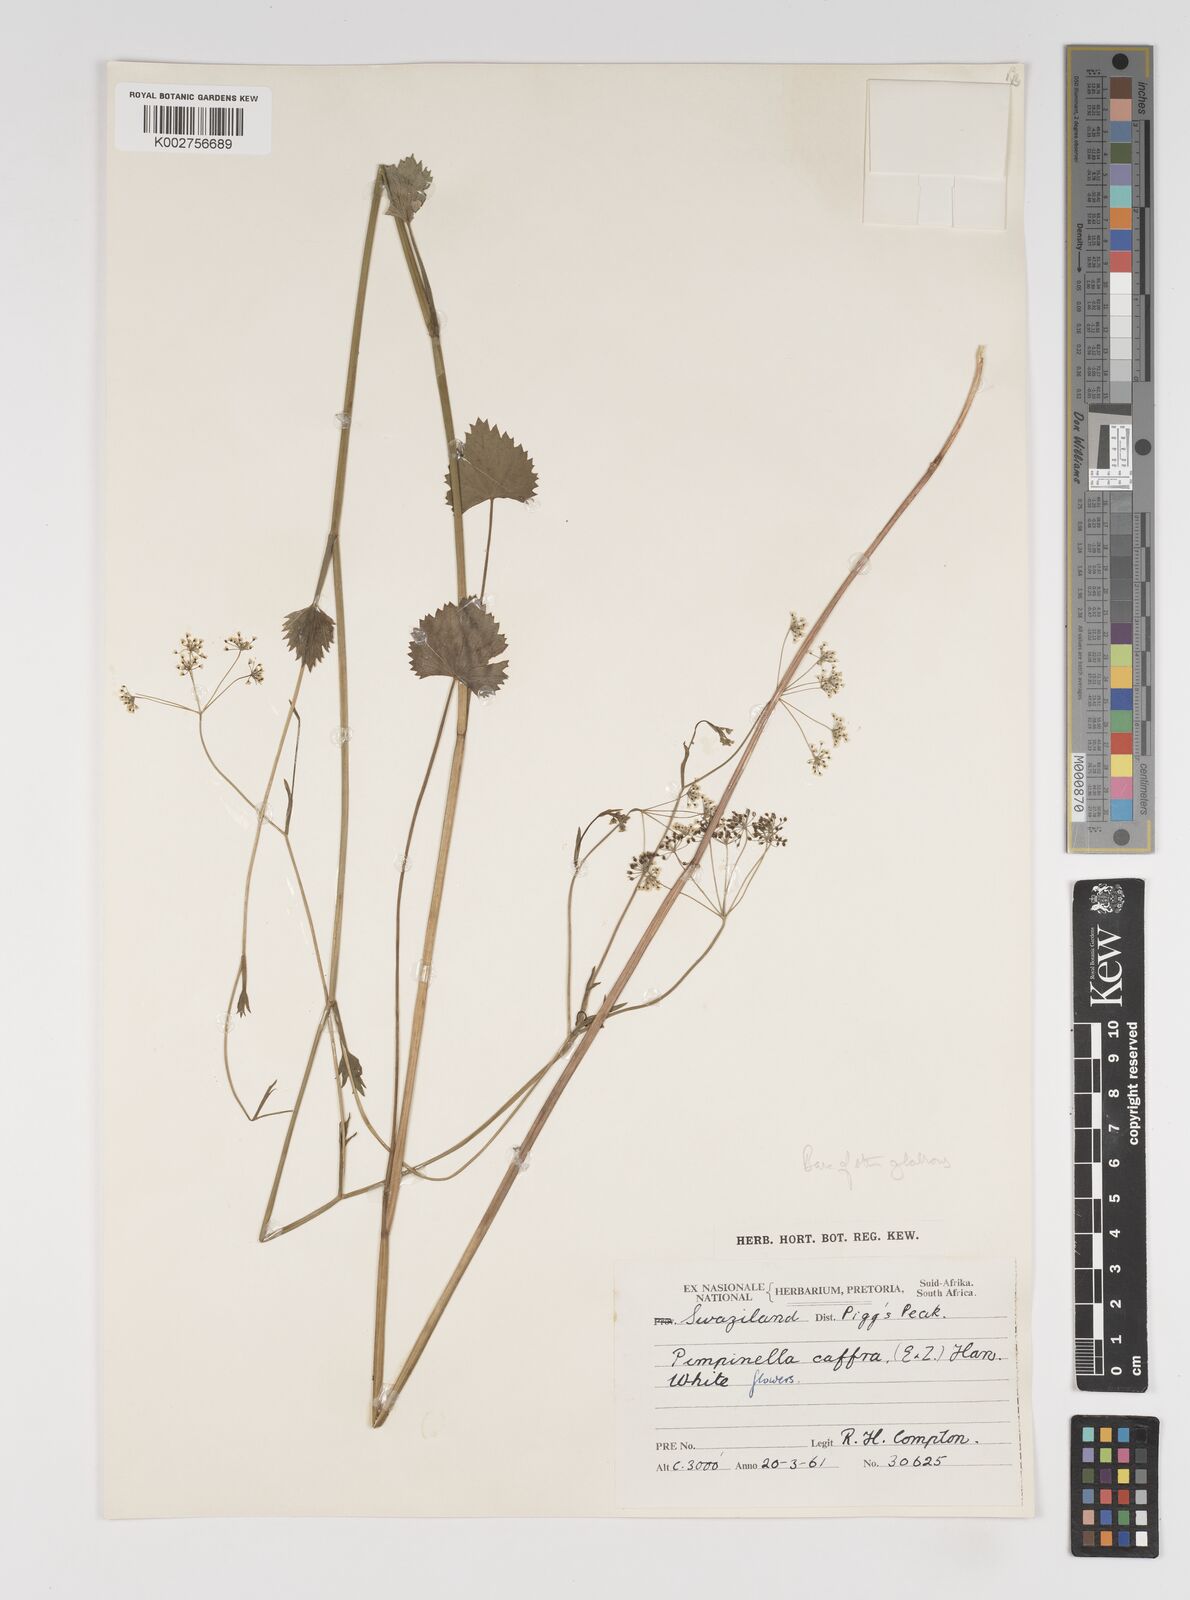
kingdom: Plantae
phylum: Tracheophyta
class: Magnoliopsida
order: Apiales
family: Apiaceae
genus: Pimpinella
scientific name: Pimpinella
